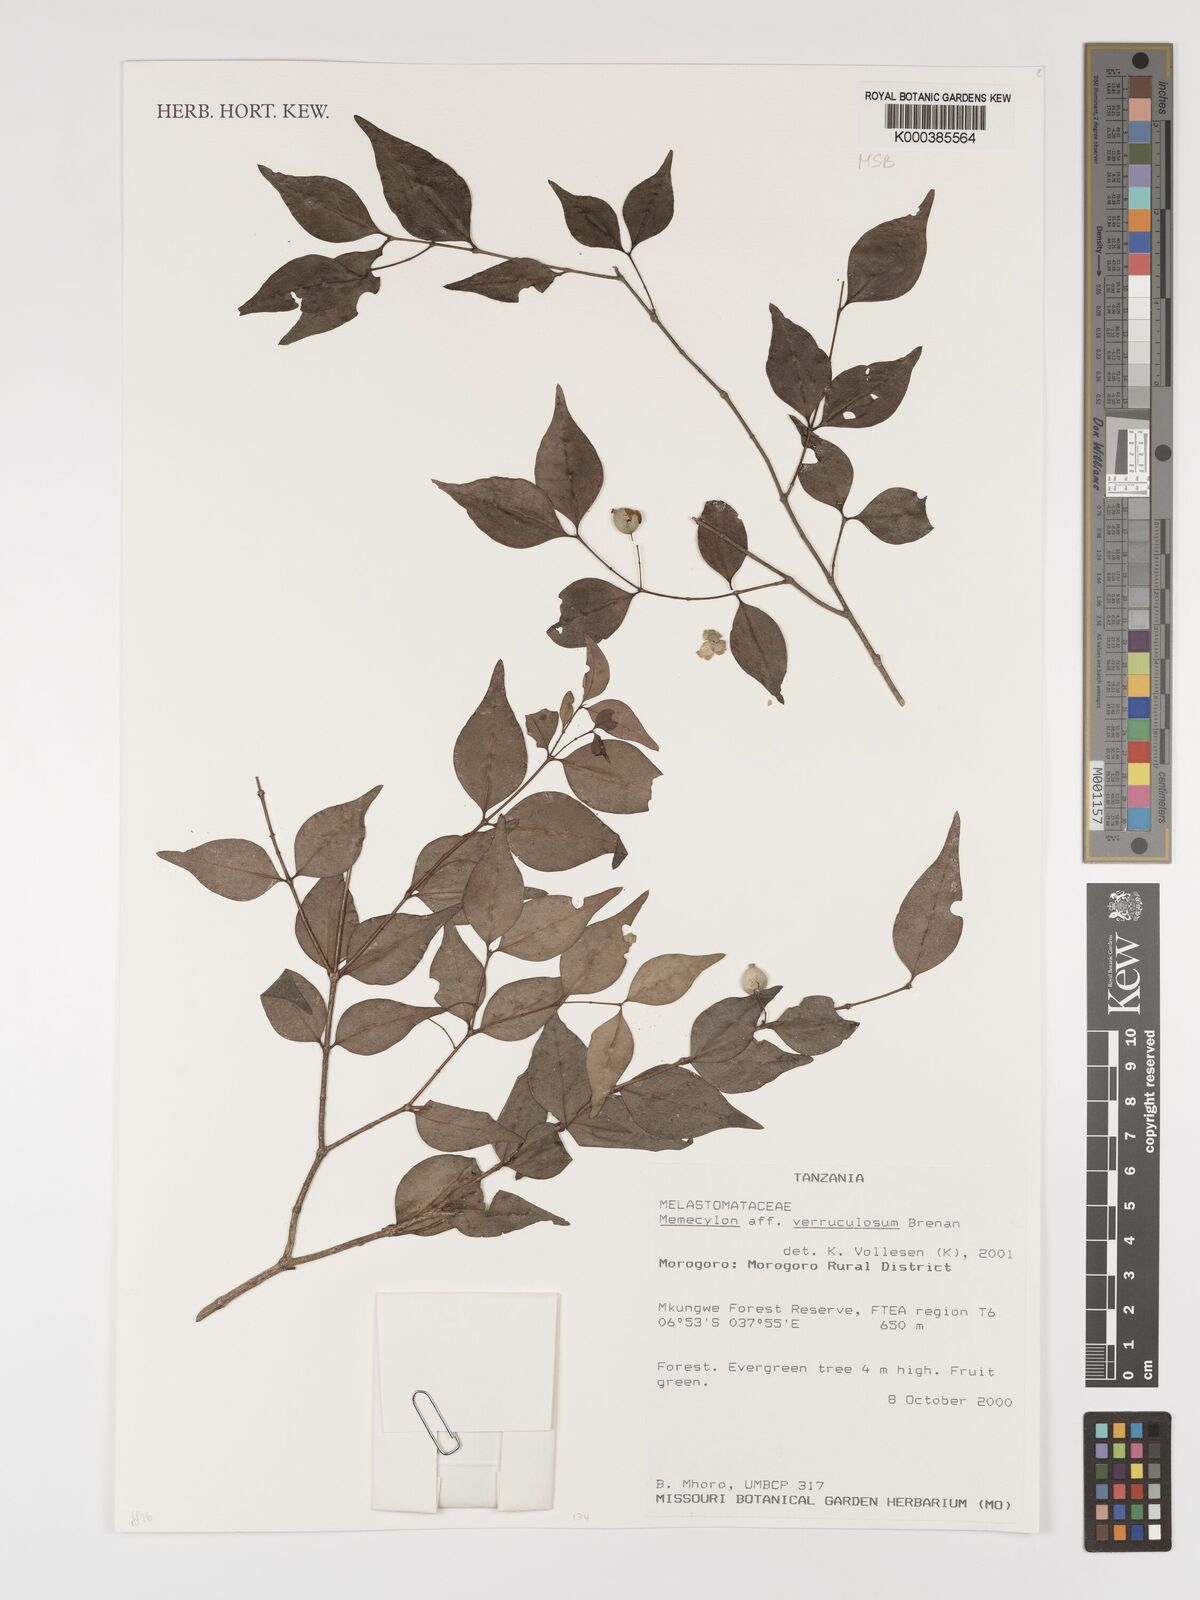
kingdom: Plantae
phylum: Tracheophyta
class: Magnoliopsida
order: Myrtales
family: Melastomataceae
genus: Memecylon
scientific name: Memecylon verruculosum
